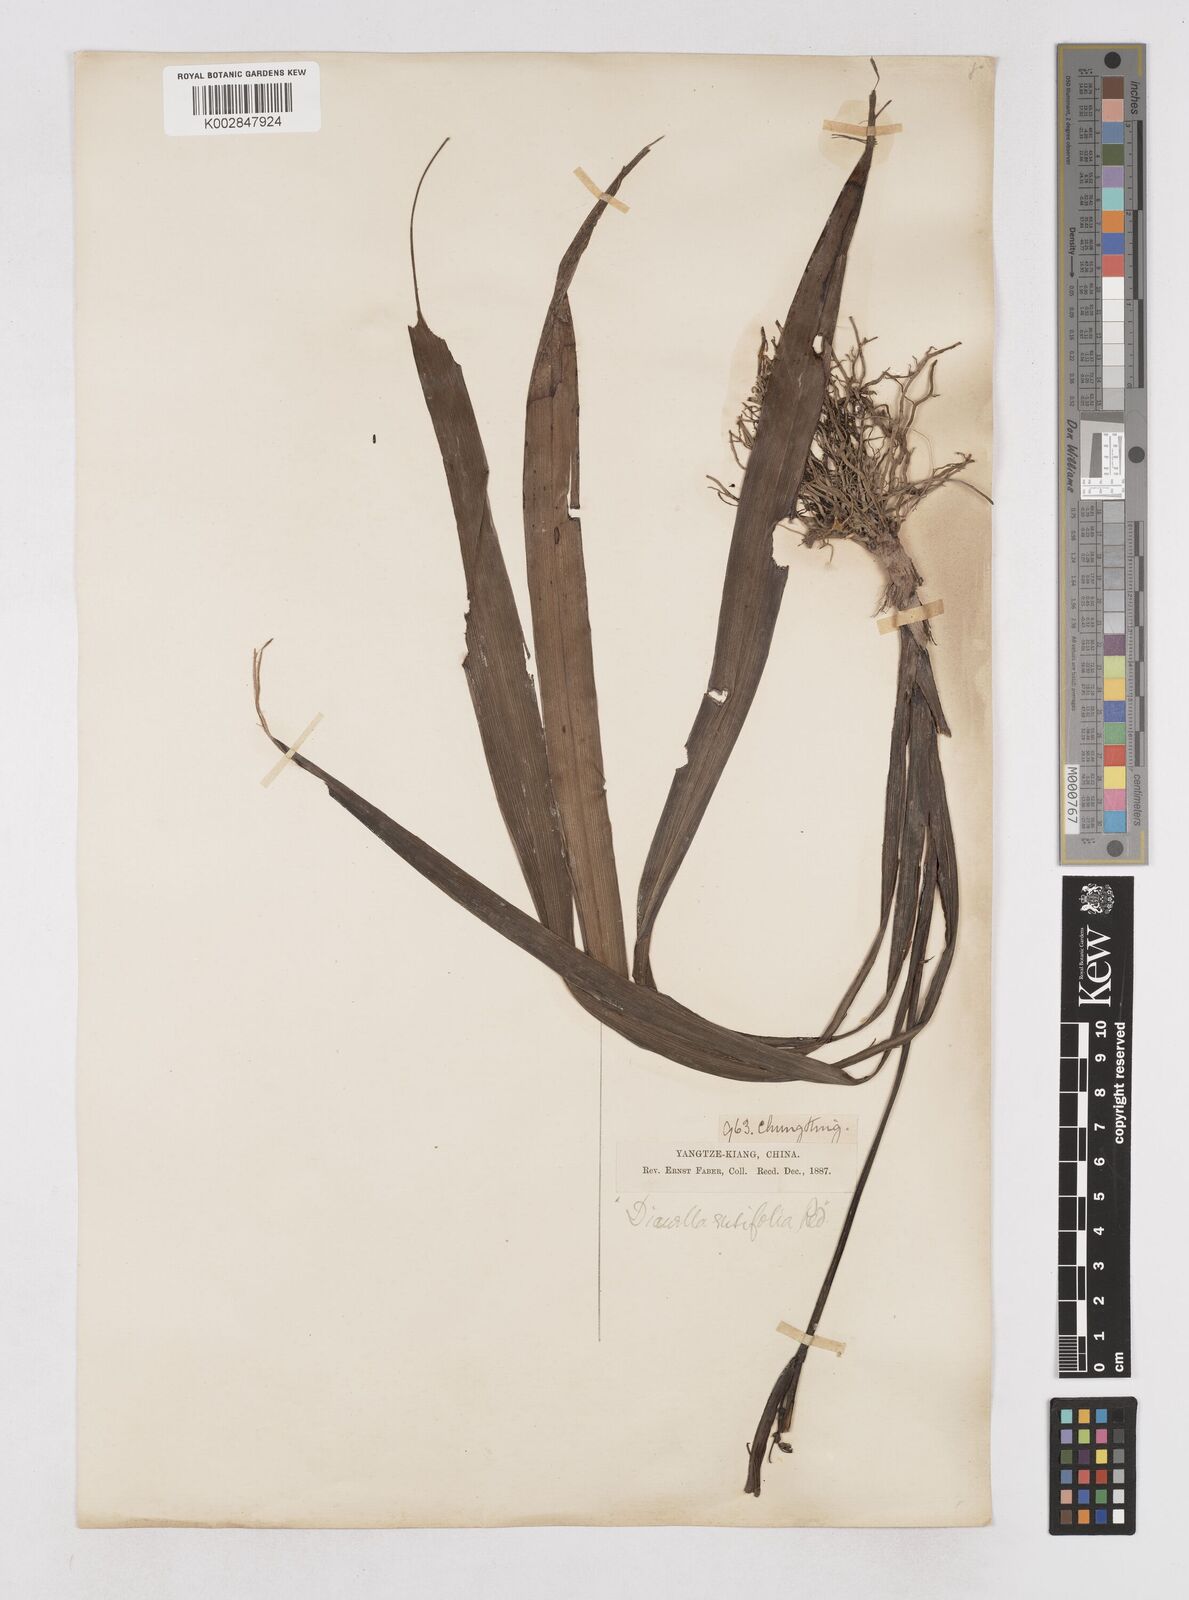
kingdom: Plantae
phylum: Tracheophyta
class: Liliopsida
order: Asparagales
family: Asphodelaceae
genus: Dianella
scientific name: Dianella ensifolia
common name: New zealand lilyplant
